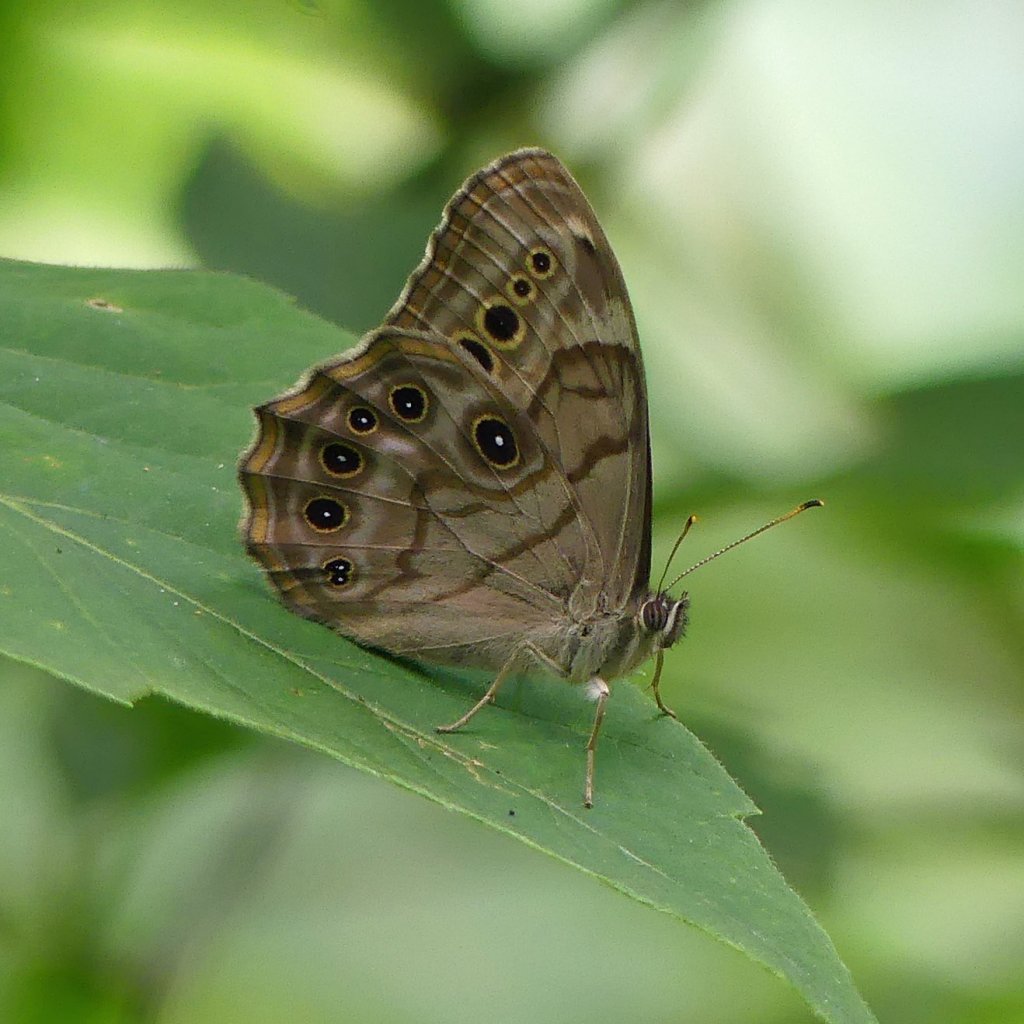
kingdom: Animalia
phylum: Arthropoda
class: Insecta
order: Lepidoptera
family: Nymphalidae
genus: Lethe
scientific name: Lethe anthedon
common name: Northern Pearly-Eye
